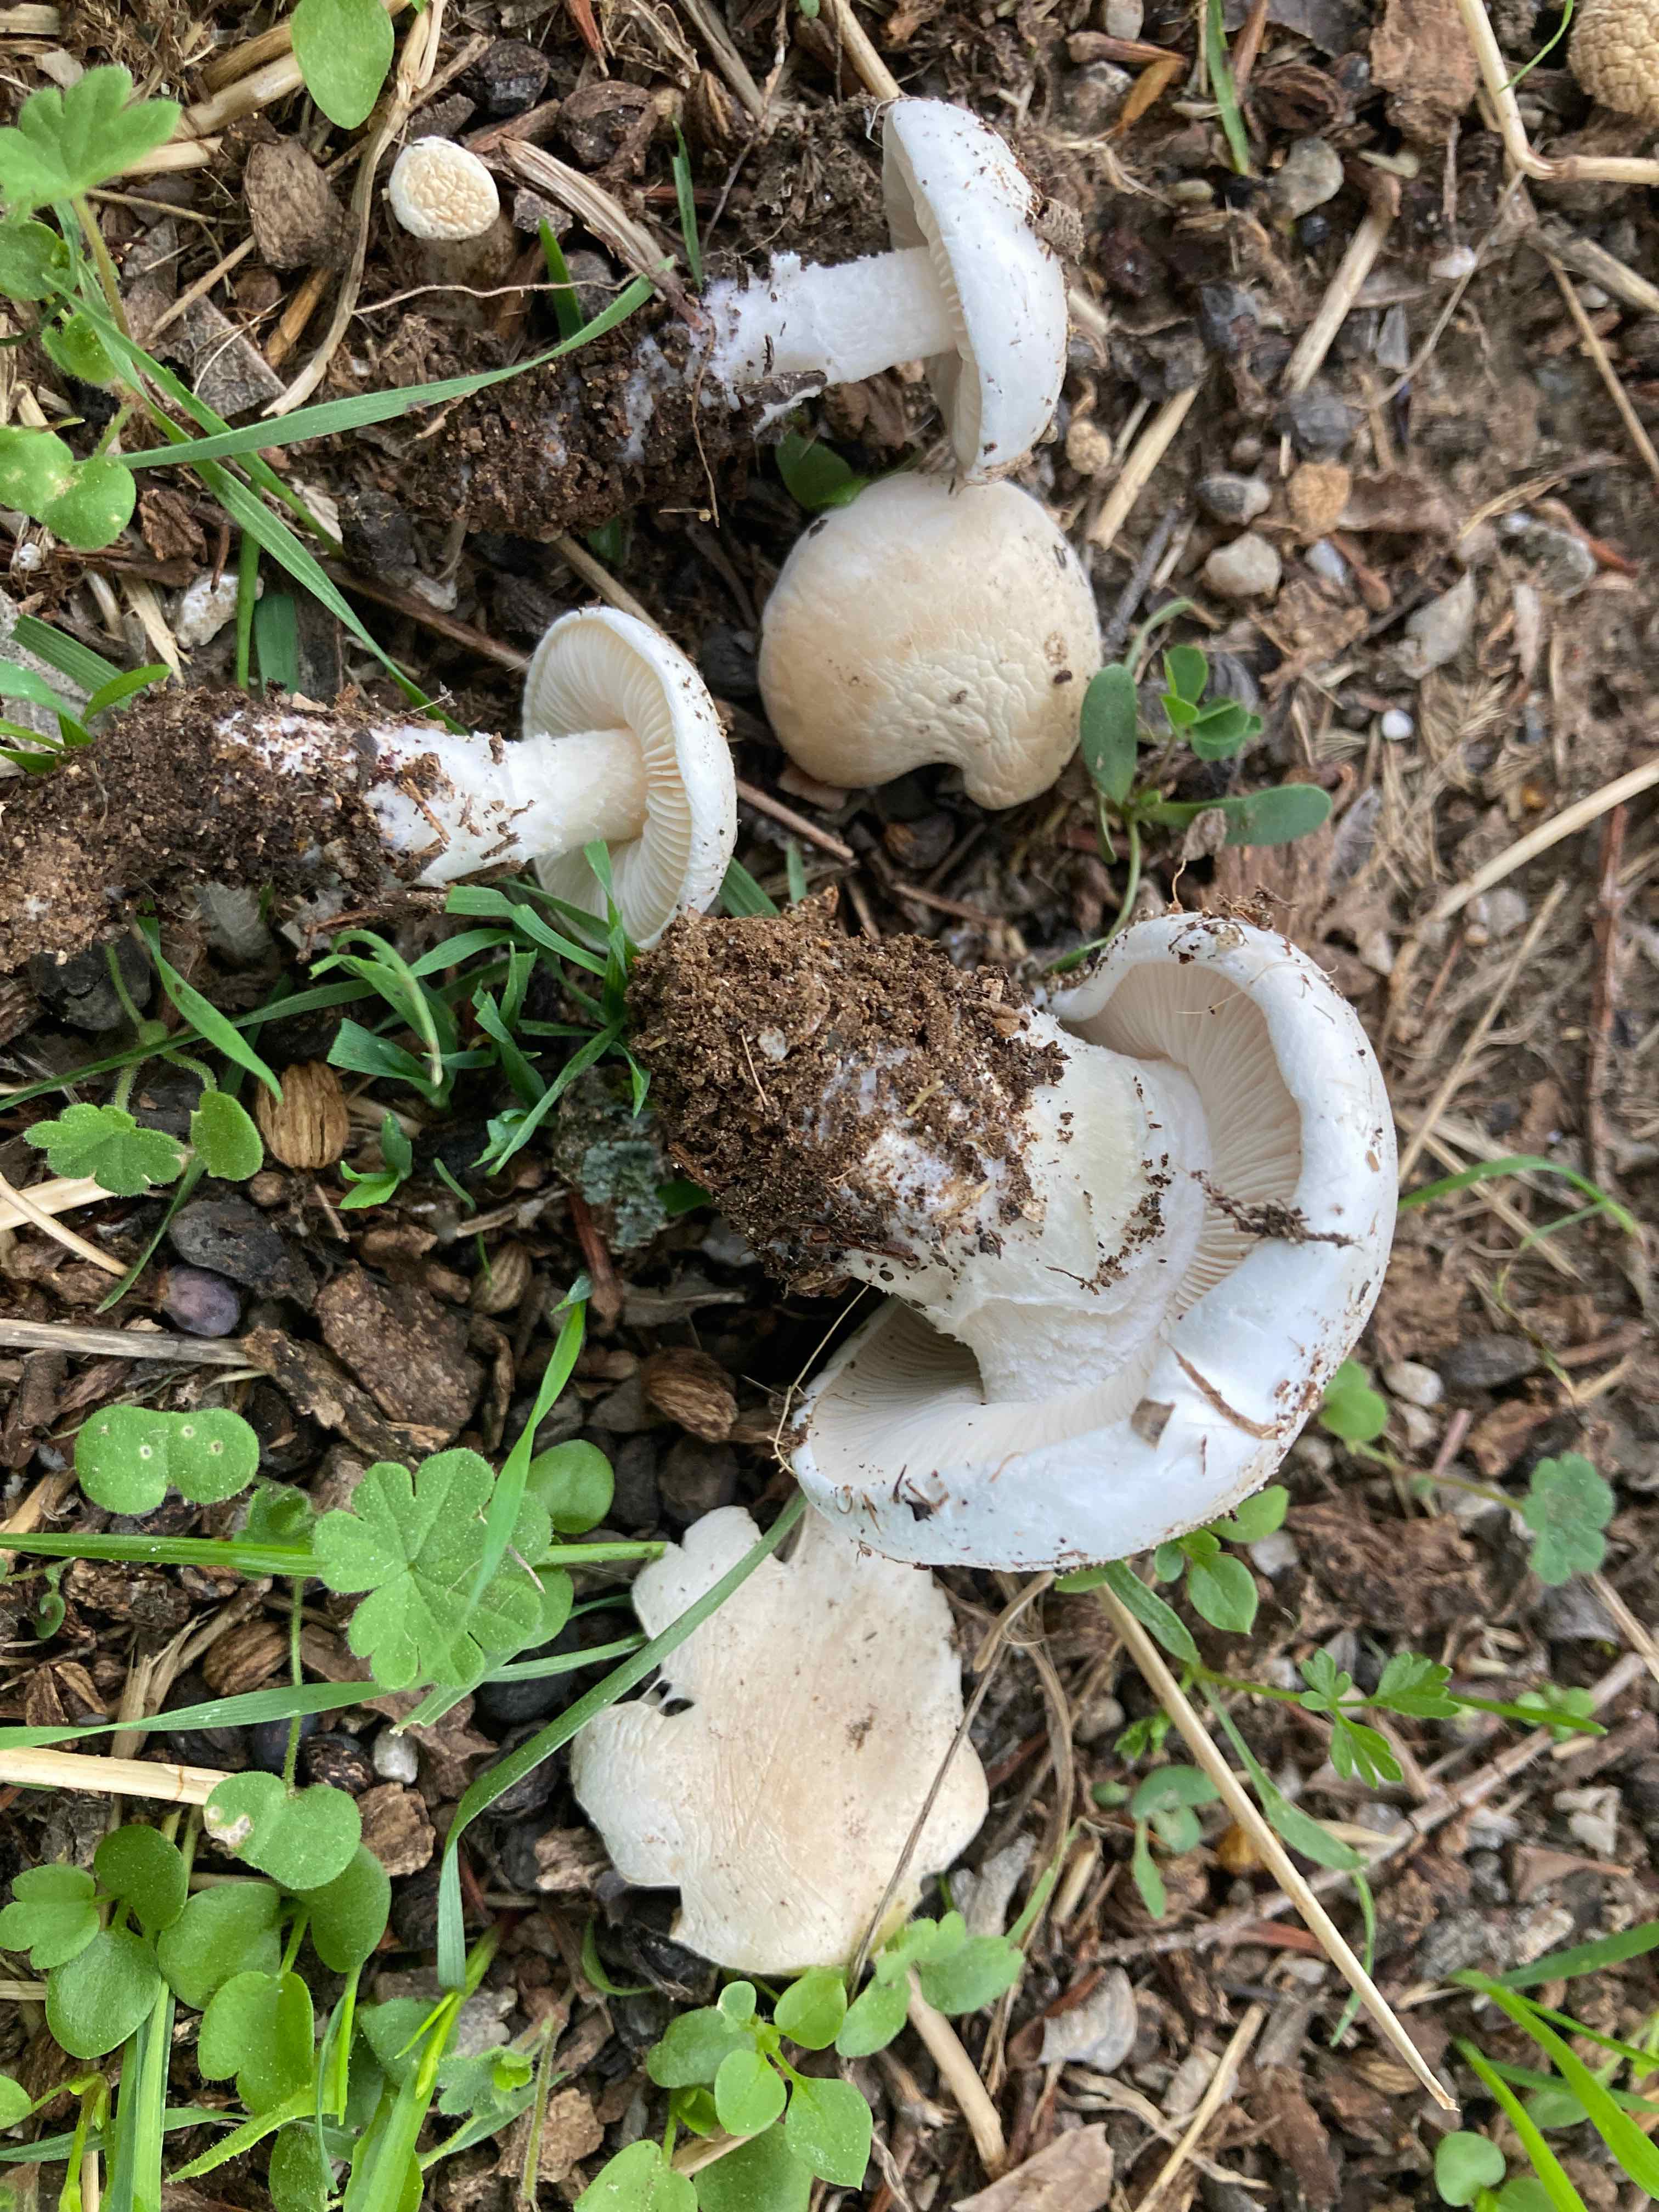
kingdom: Fungi
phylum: Basidiomycota
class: Agaricomycetes
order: Agaricales
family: Lyophyllaceae
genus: Tricholomella
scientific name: Tricholomella constricta
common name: ring-fagerhat
